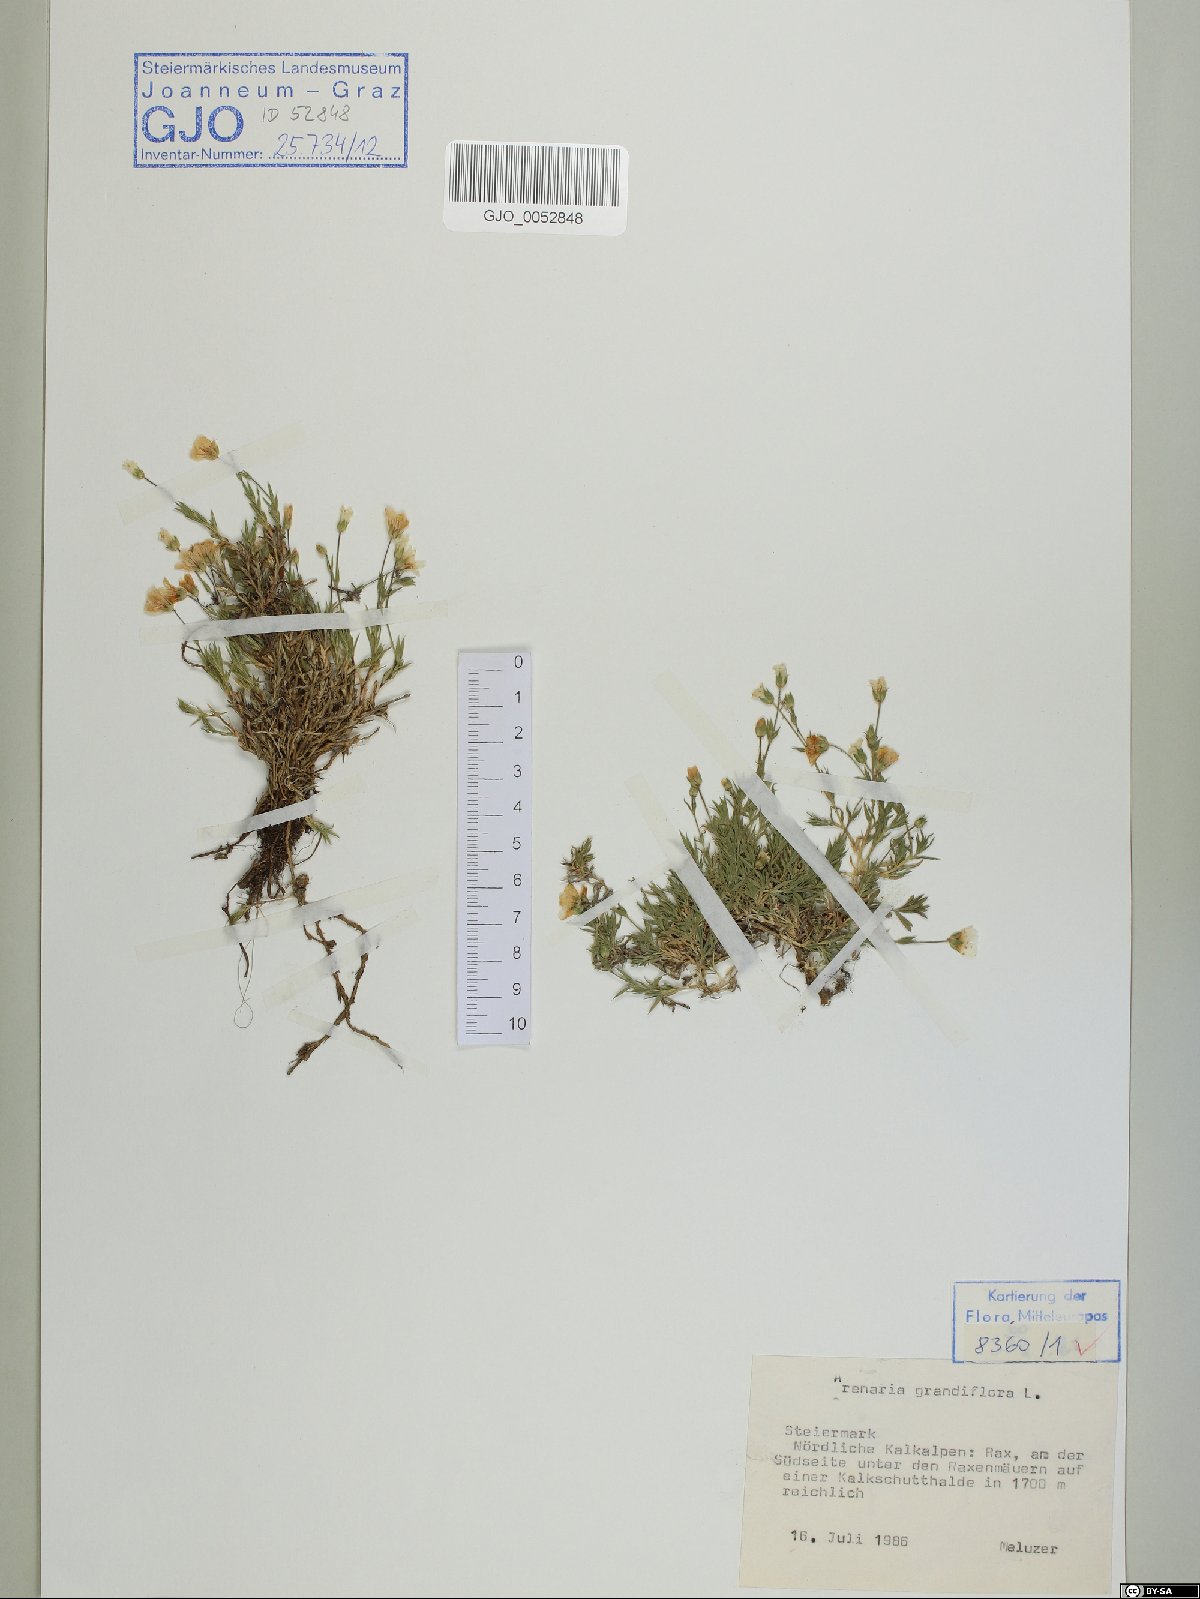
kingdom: Plantae
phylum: Tracheophyta
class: Magnoliopsida
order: Caryophyllales
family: Caryophyllaceae
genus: Arenaria
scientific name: Arenaria grandiflora
